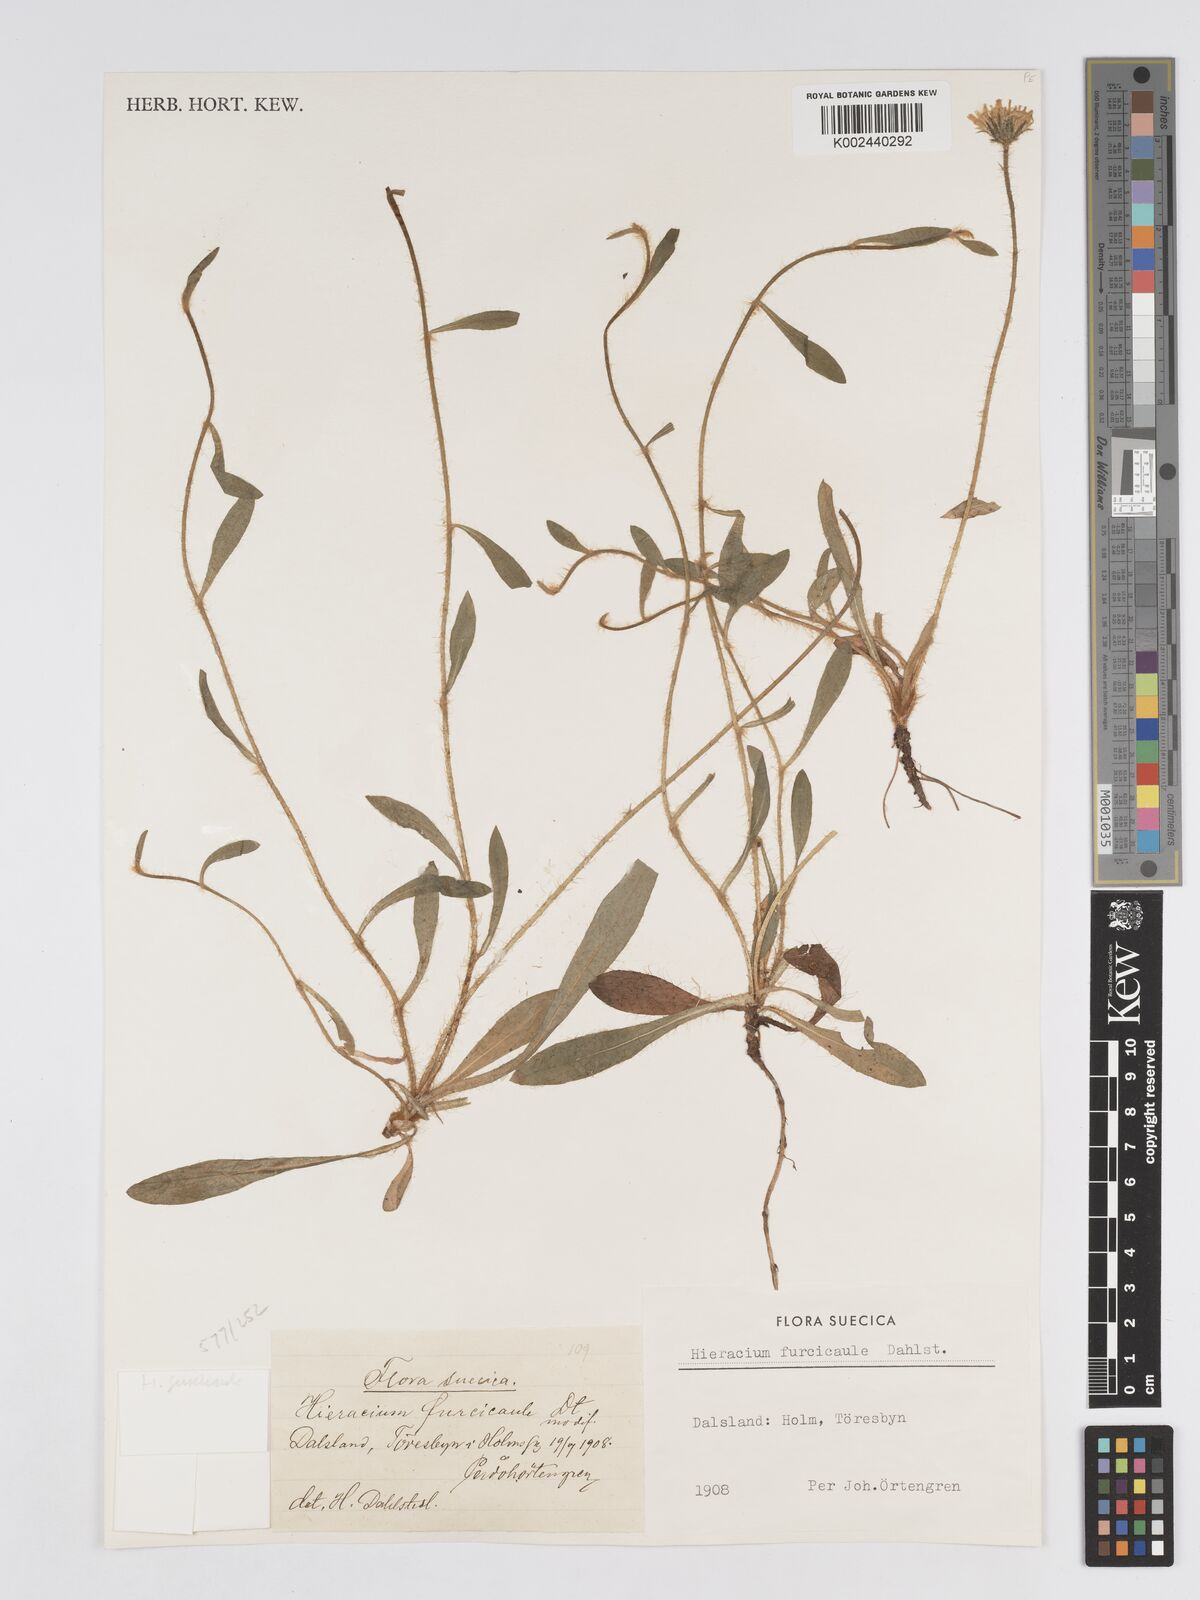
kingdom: Plantae
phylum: Tracheophyta
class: Magnoliopsida
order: Asterales
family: Asteraceae
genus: Pilosella
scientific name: Pilosella officinarum
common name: Mouse-ear hawkweed
